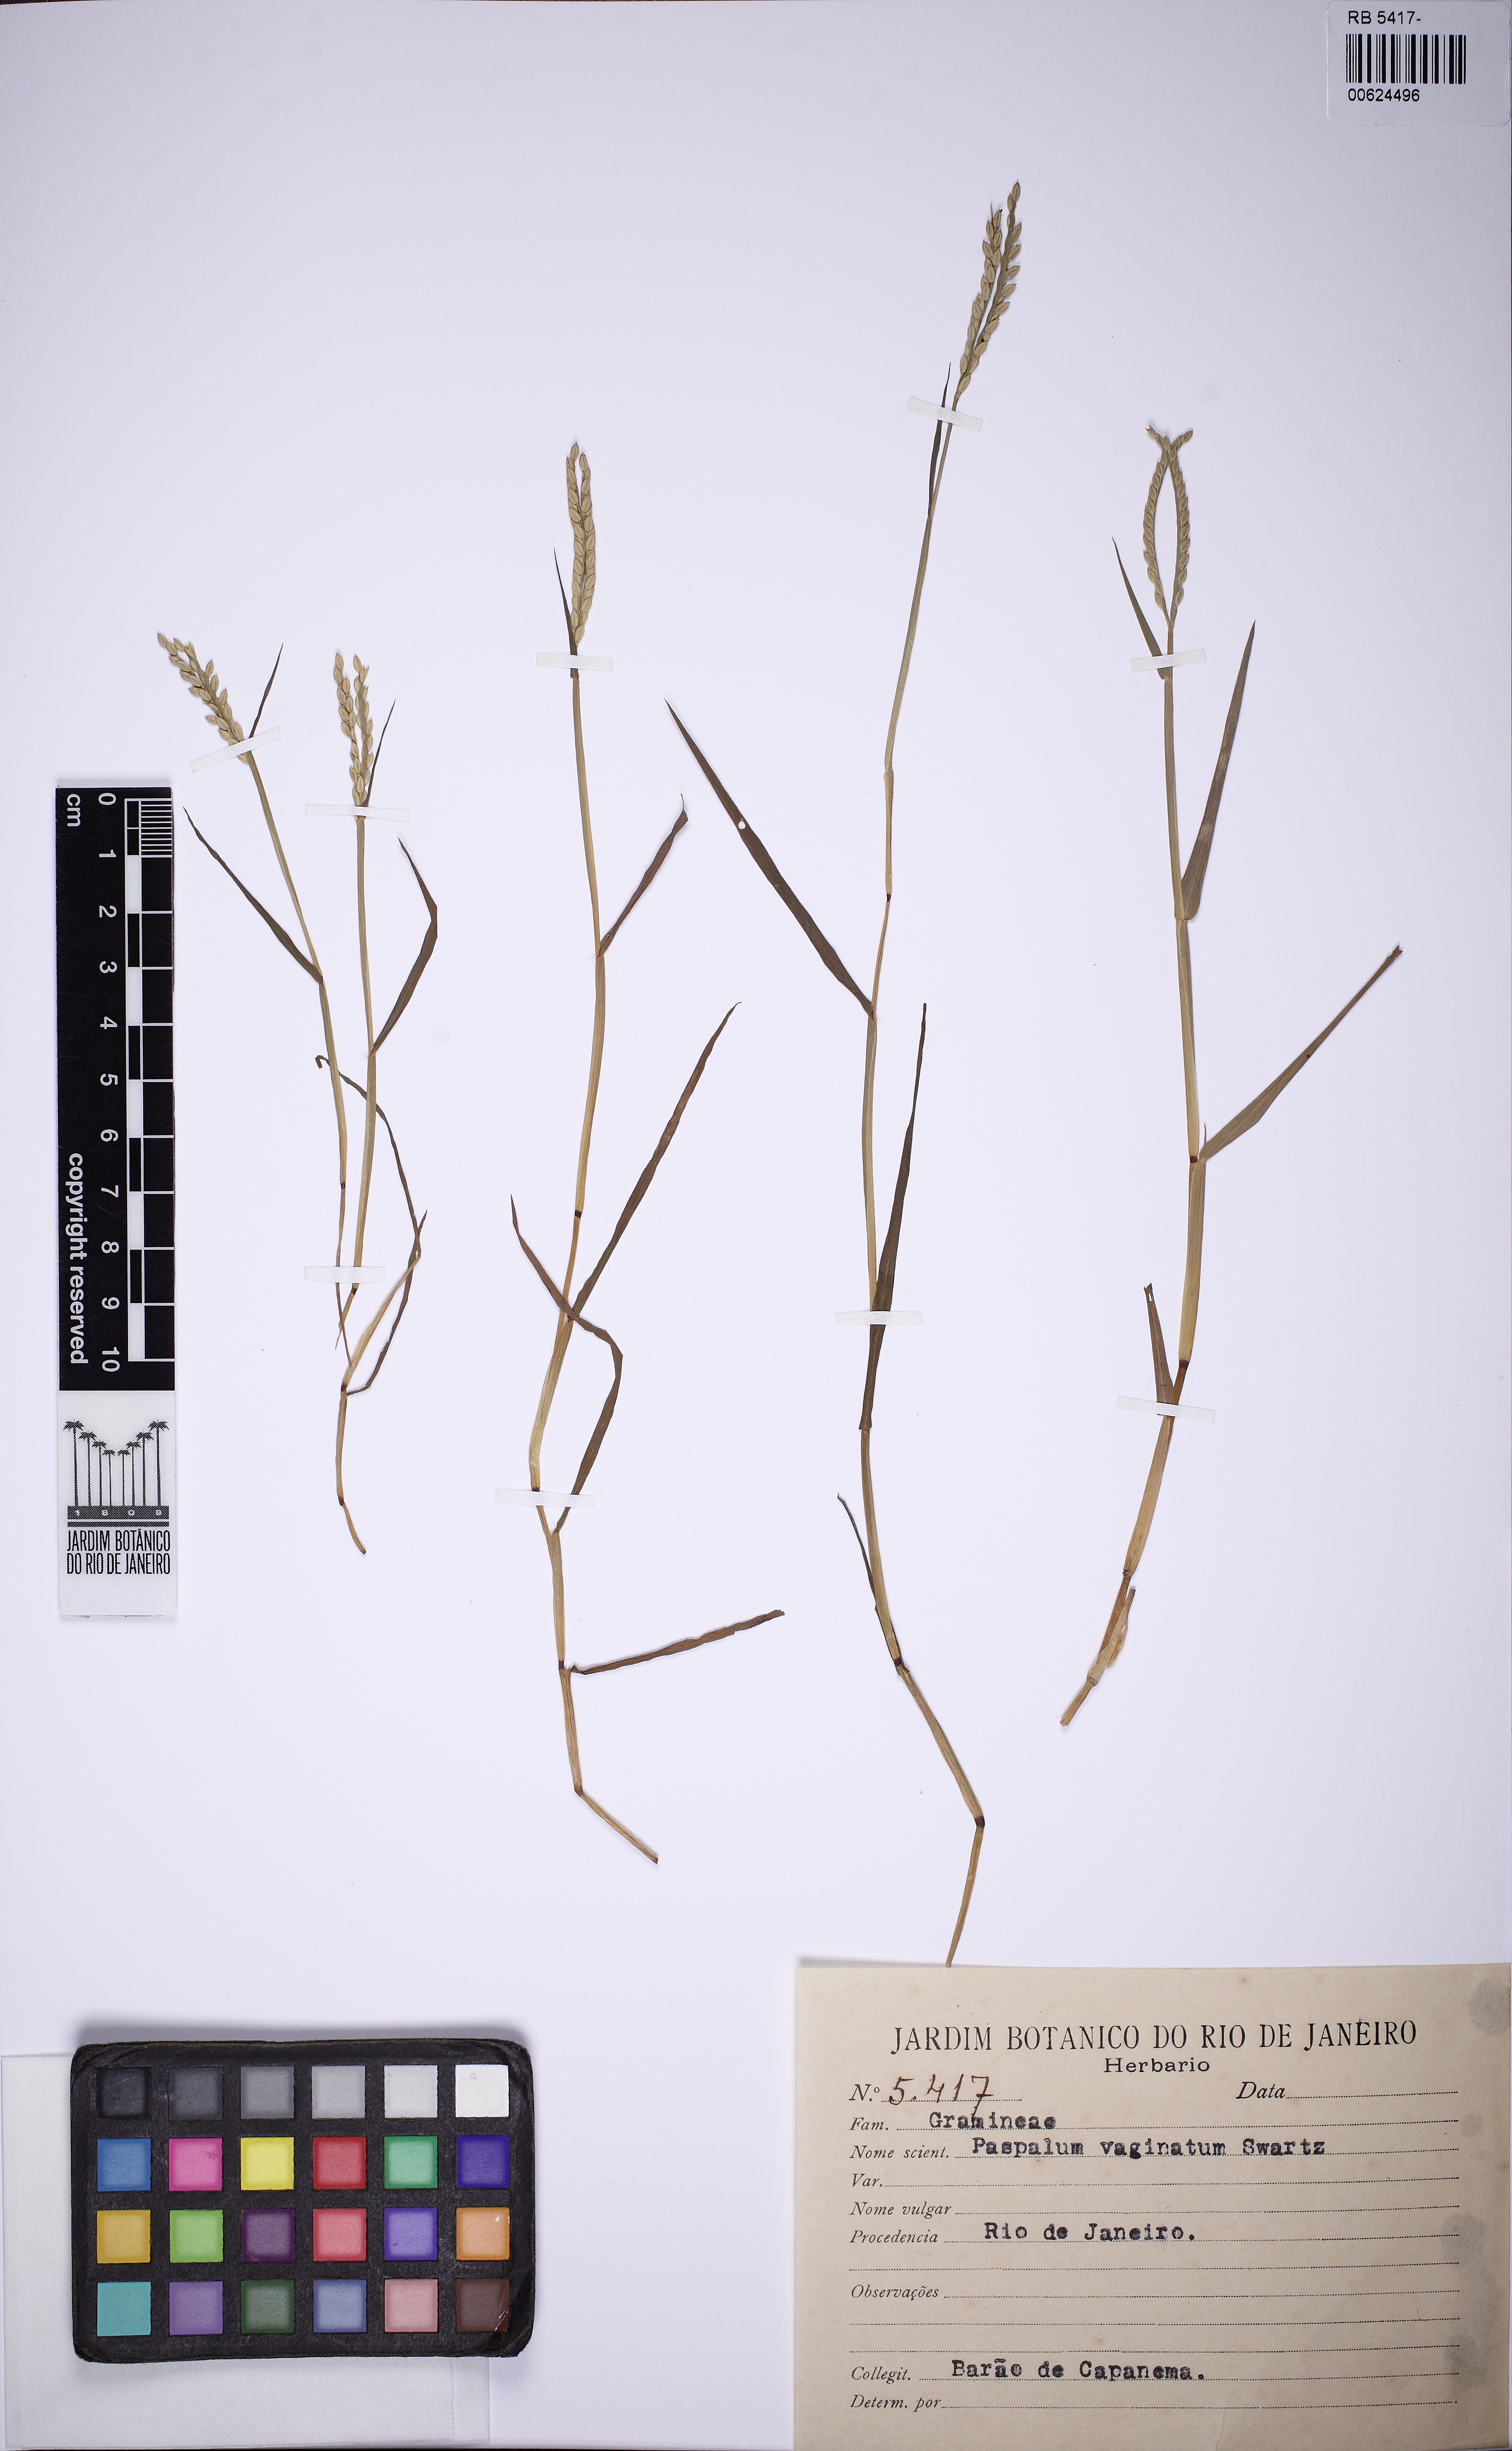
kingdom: Plantae
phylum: Tracheophyta
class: Liliopsida
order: Poales
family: Poaceae
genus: Paspalum
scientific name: Paspalum vaginatum
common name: Seashore paspalum
